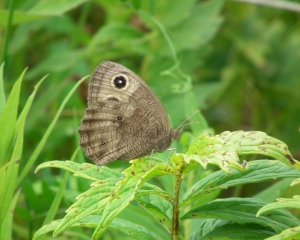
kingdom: Animalia
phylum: Arthropoda
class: Insecta
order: Lepidoptera
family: Nymphalidae
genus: Cercyonis
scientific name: Cercyonis pegala
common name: Common Wood-Nymph
